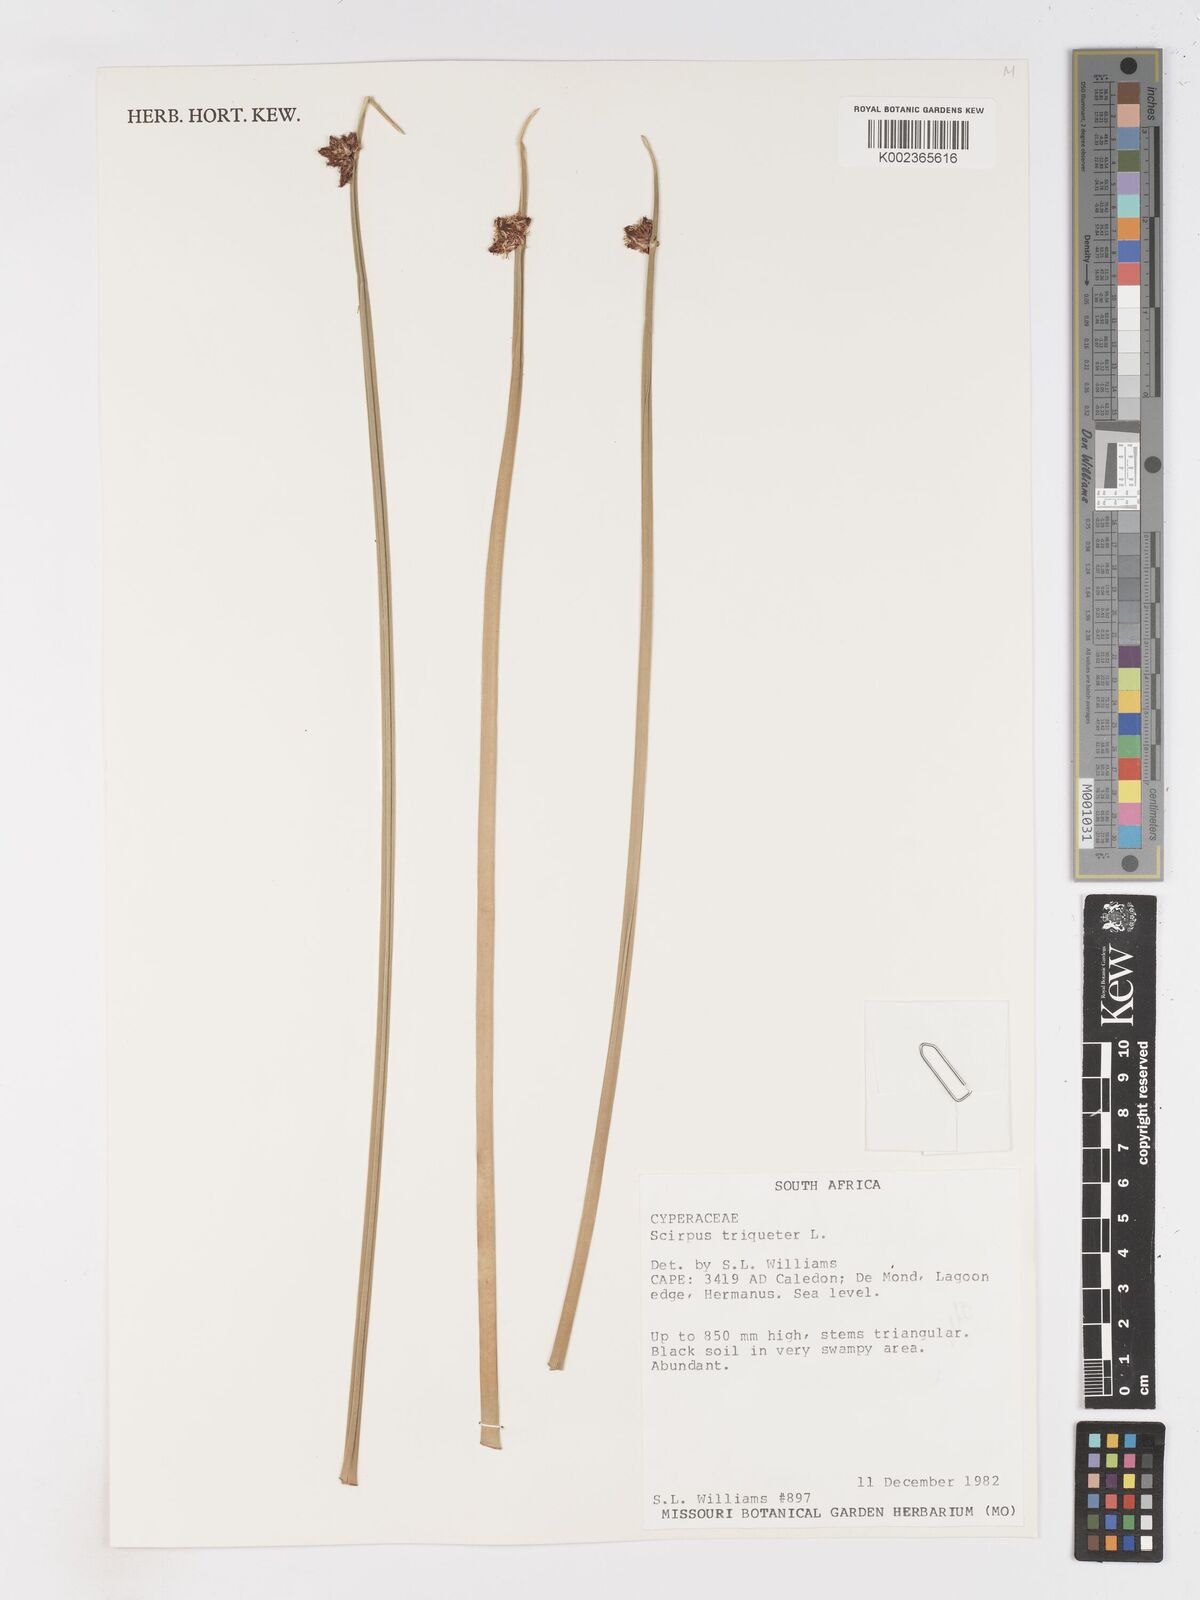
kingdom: Plantae
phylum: Tracheophyta
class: Liliopsida
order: Poales
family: Cyperaceae
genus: Schoenoplectus
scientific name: Schoenoplectus triqueter
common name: Triangular club-rush
